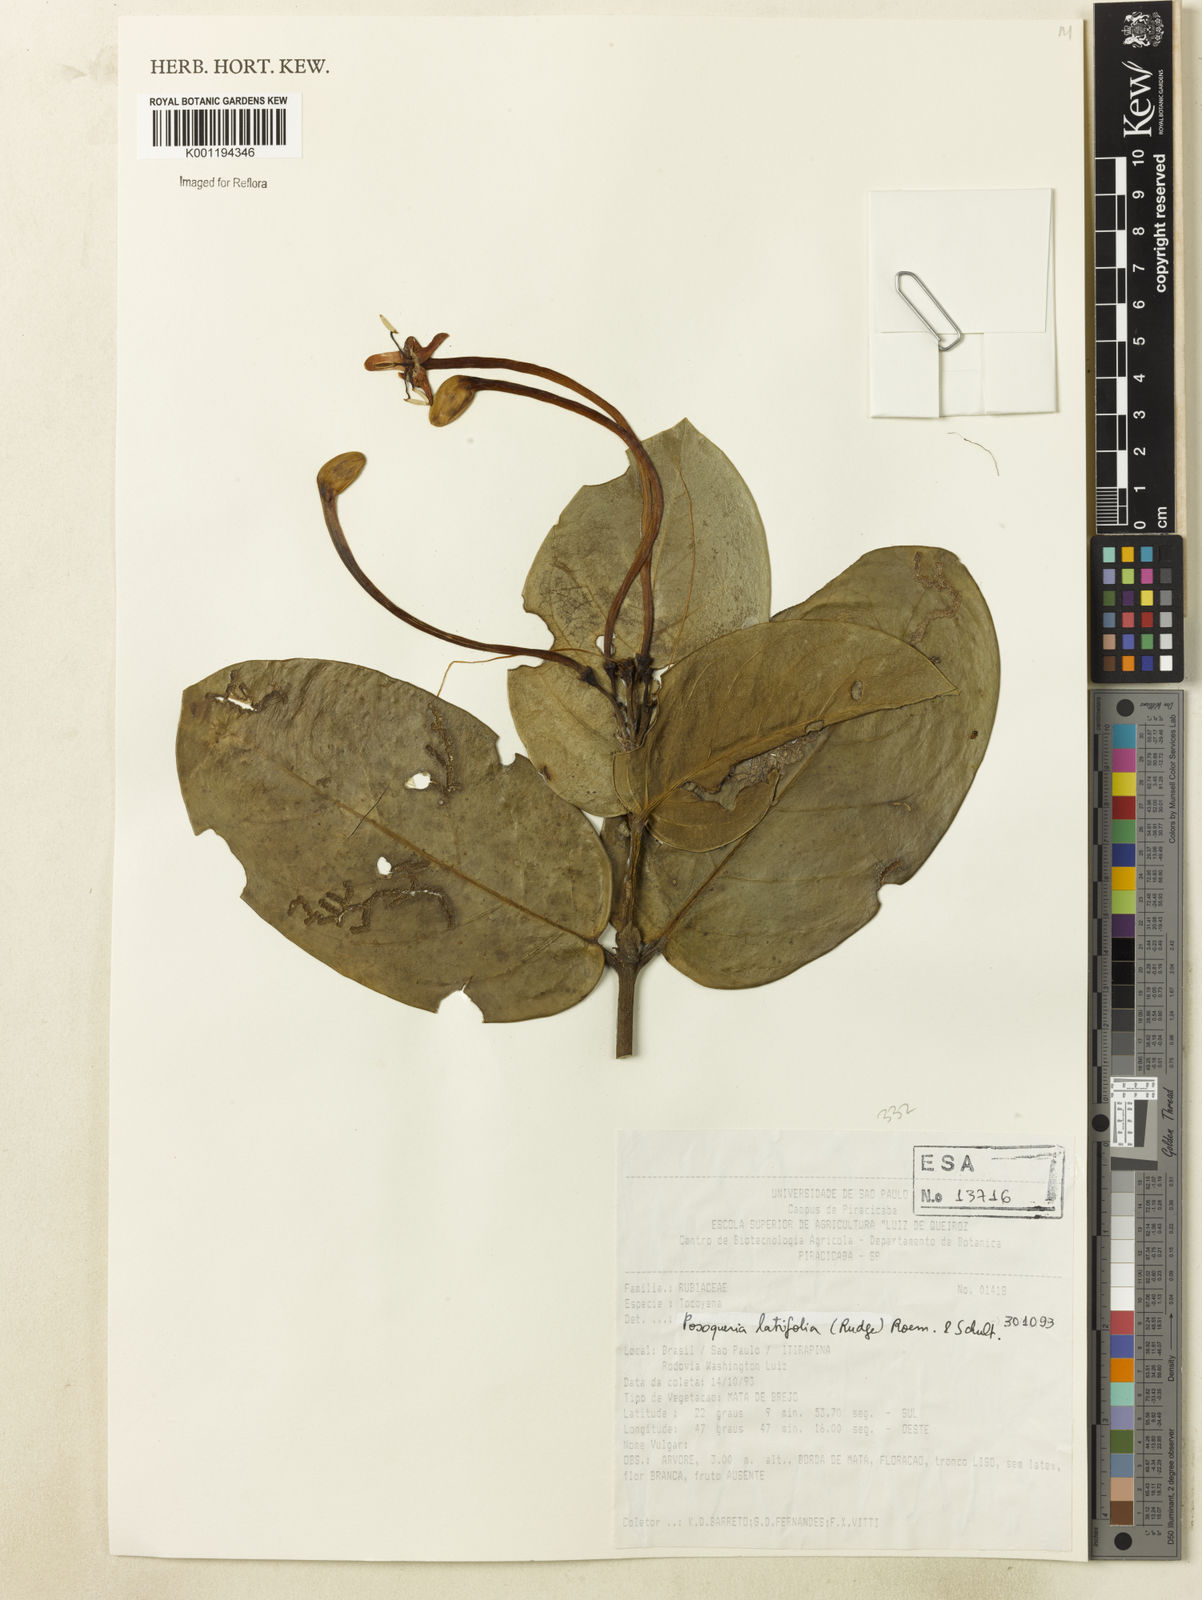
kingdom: Plantae
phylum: Tracheophyta
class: Magnoliopsida
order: Gentianales
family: Rubiaceae
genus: Posoqueria
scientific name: Posoqueria latifolia
